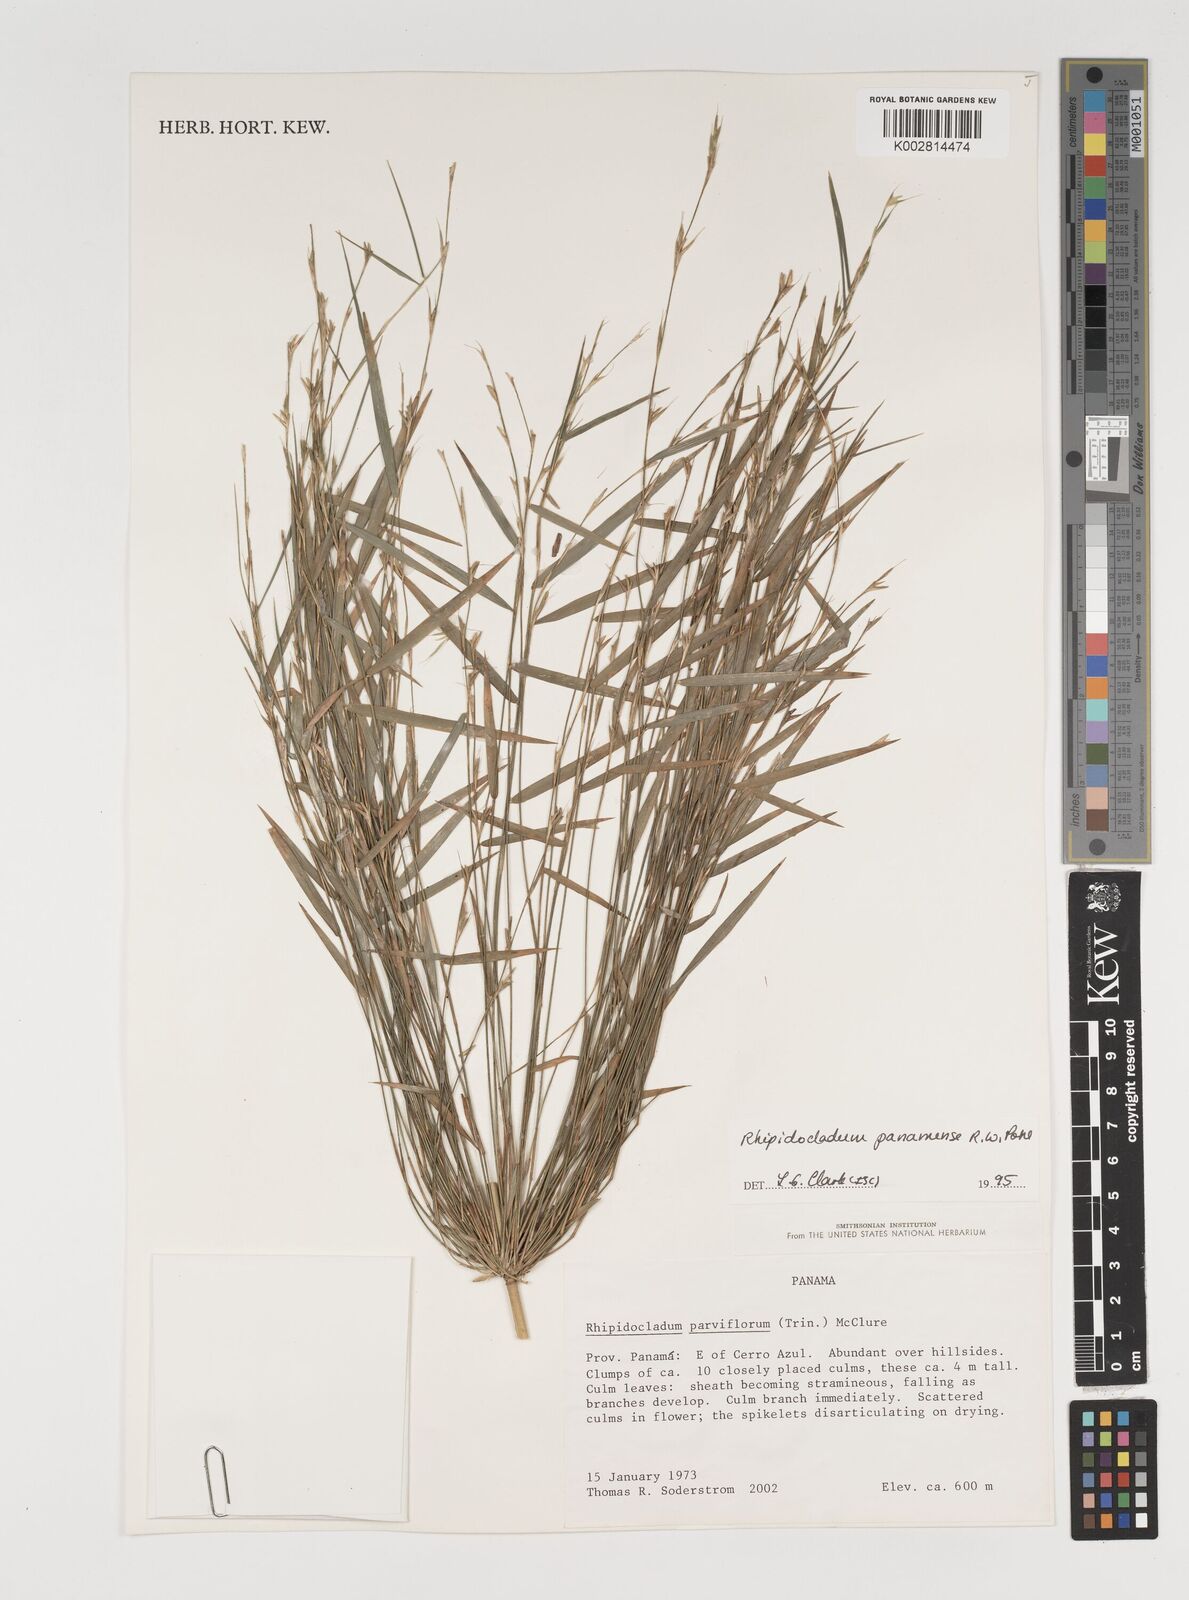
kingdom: Plantae
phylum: Tracheophyta
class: Liliopsida
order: Poales
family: Poaceae
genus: Rhipidocladum
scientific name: Rhipidocladum panamense
